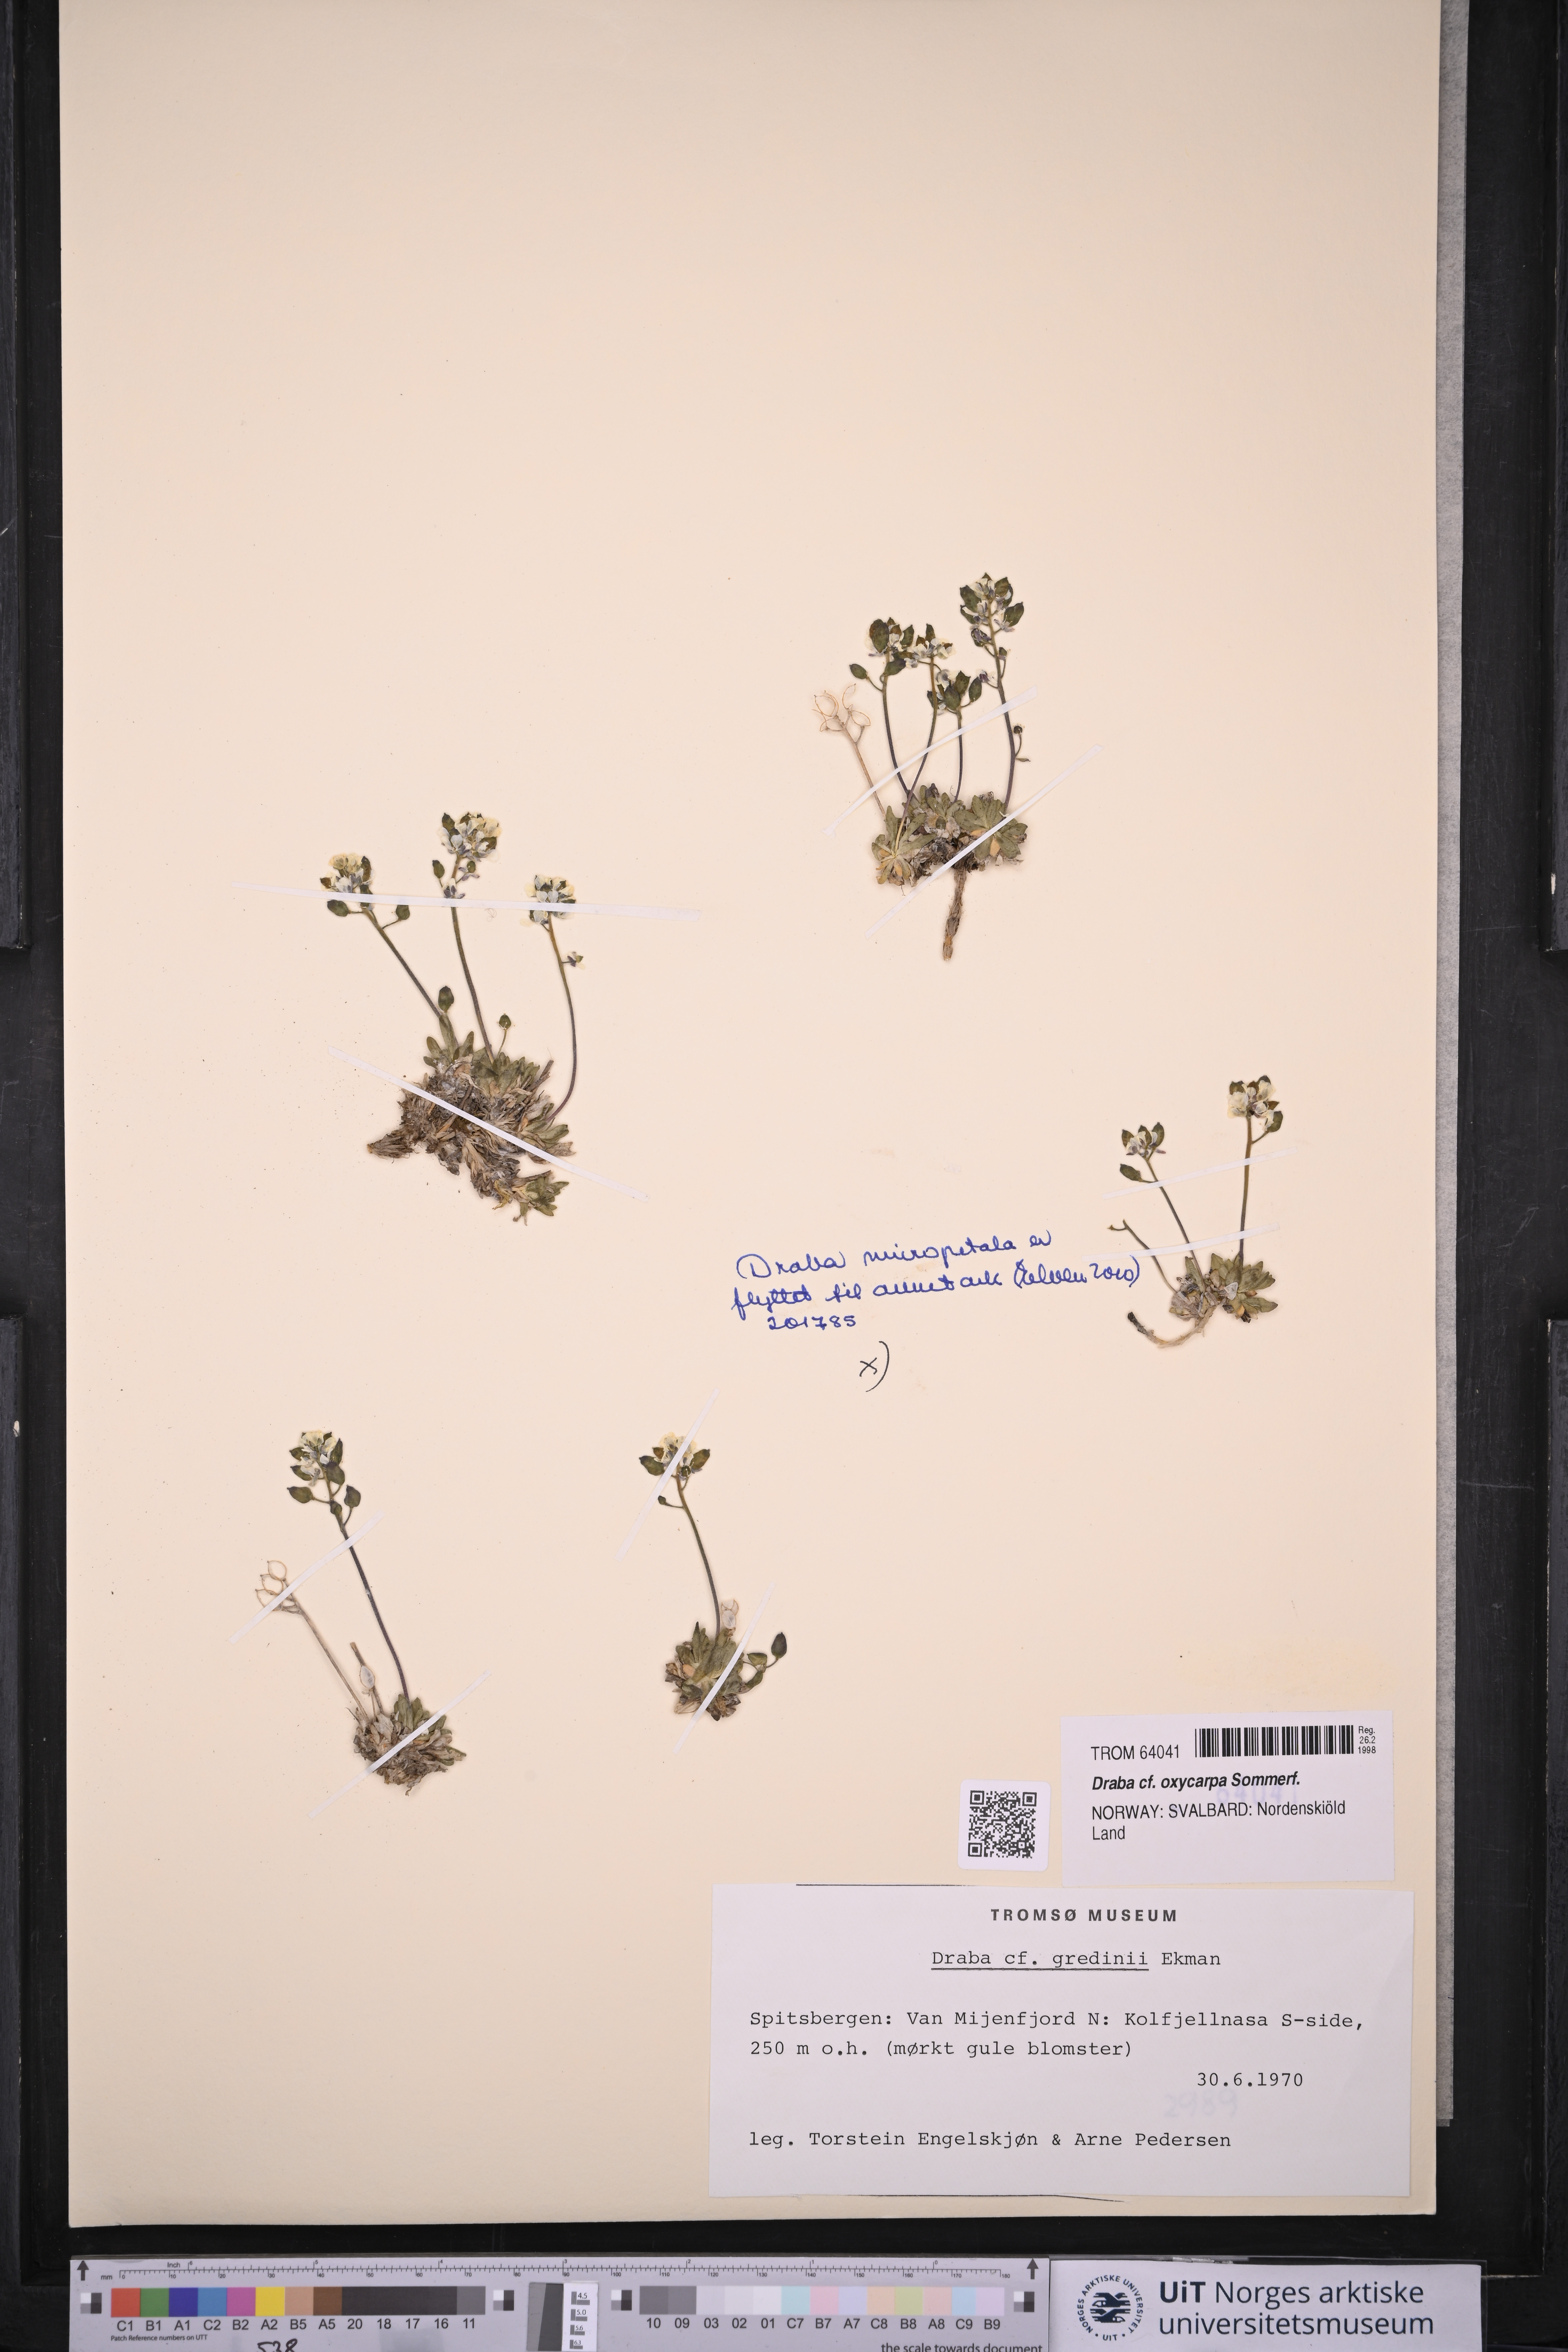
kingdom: Plantae
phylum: Tracheophyta
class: Magnoliopsida
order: Brassicales
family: Brassicaceae
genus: Draba
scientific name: Draba oxycarpa
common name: Sharp-fruited whitlow-grass
